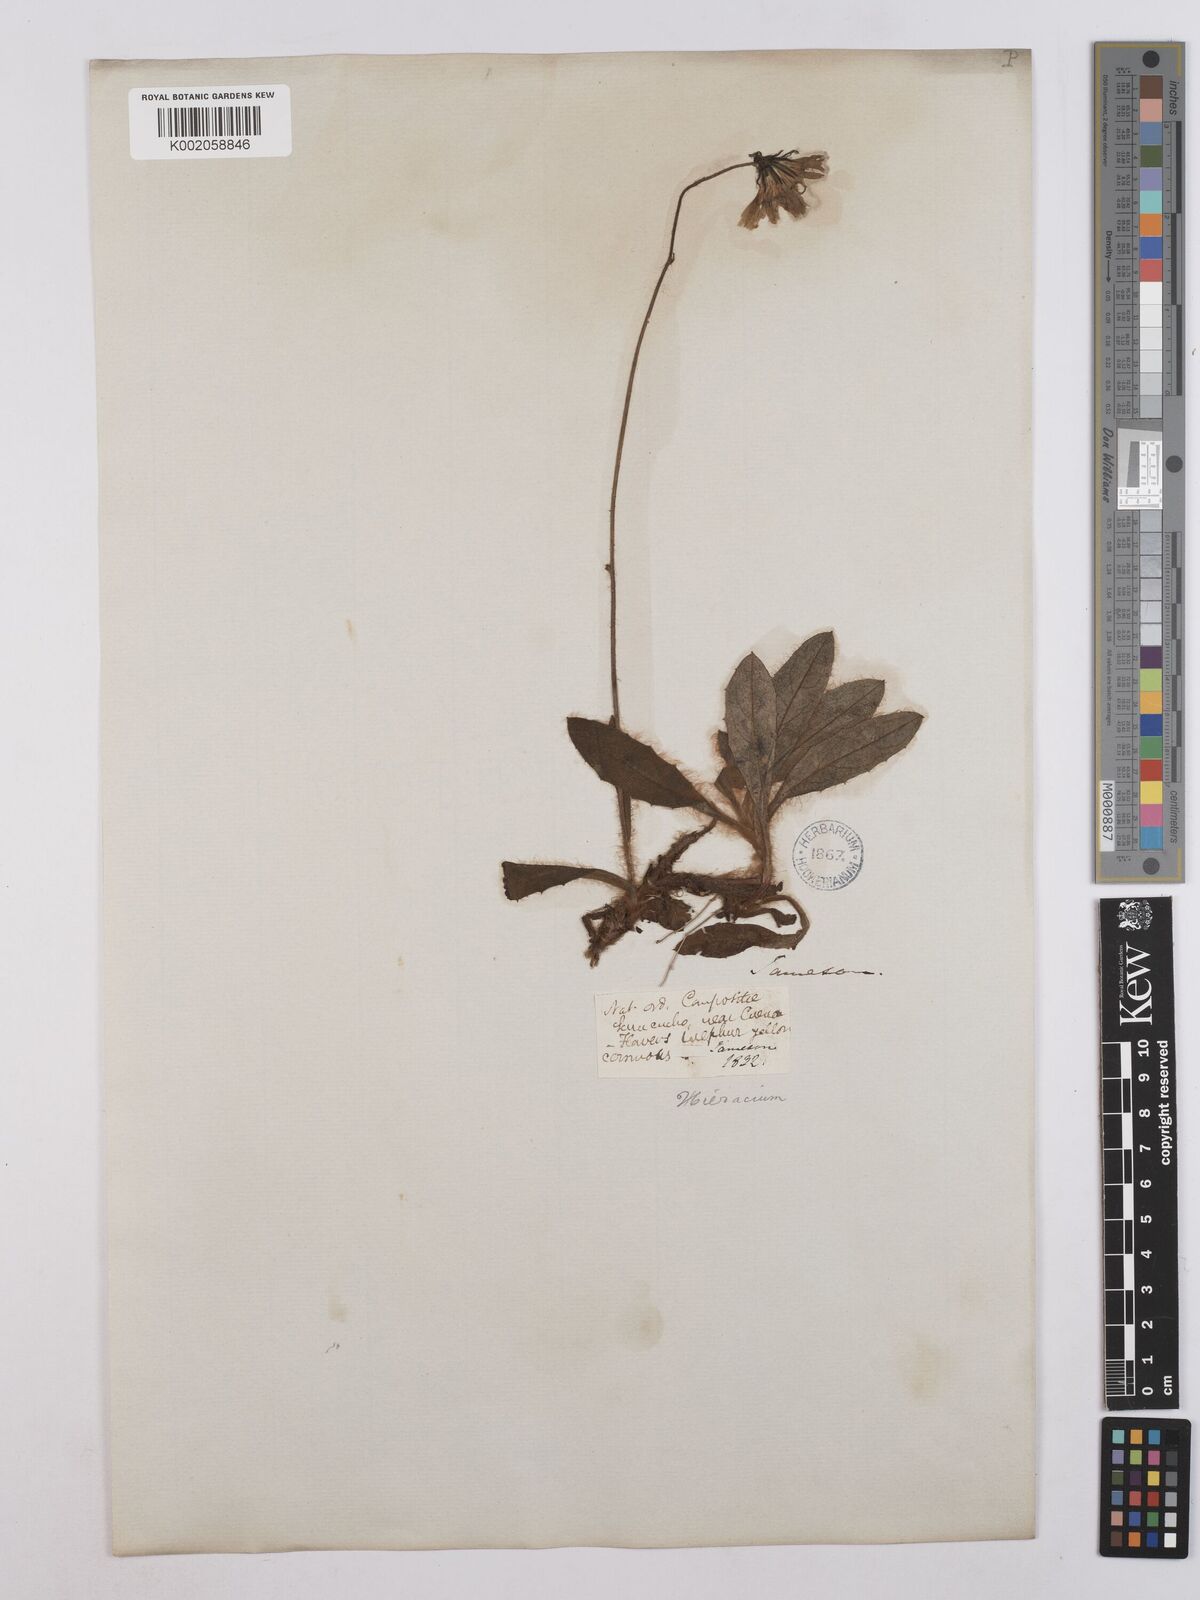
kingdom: Plantae
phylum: Tracheophyta
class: Magnoliopsida
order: Asterales
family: Asteraceae
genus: Hieracium
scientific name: Hieracium leucanthemum
